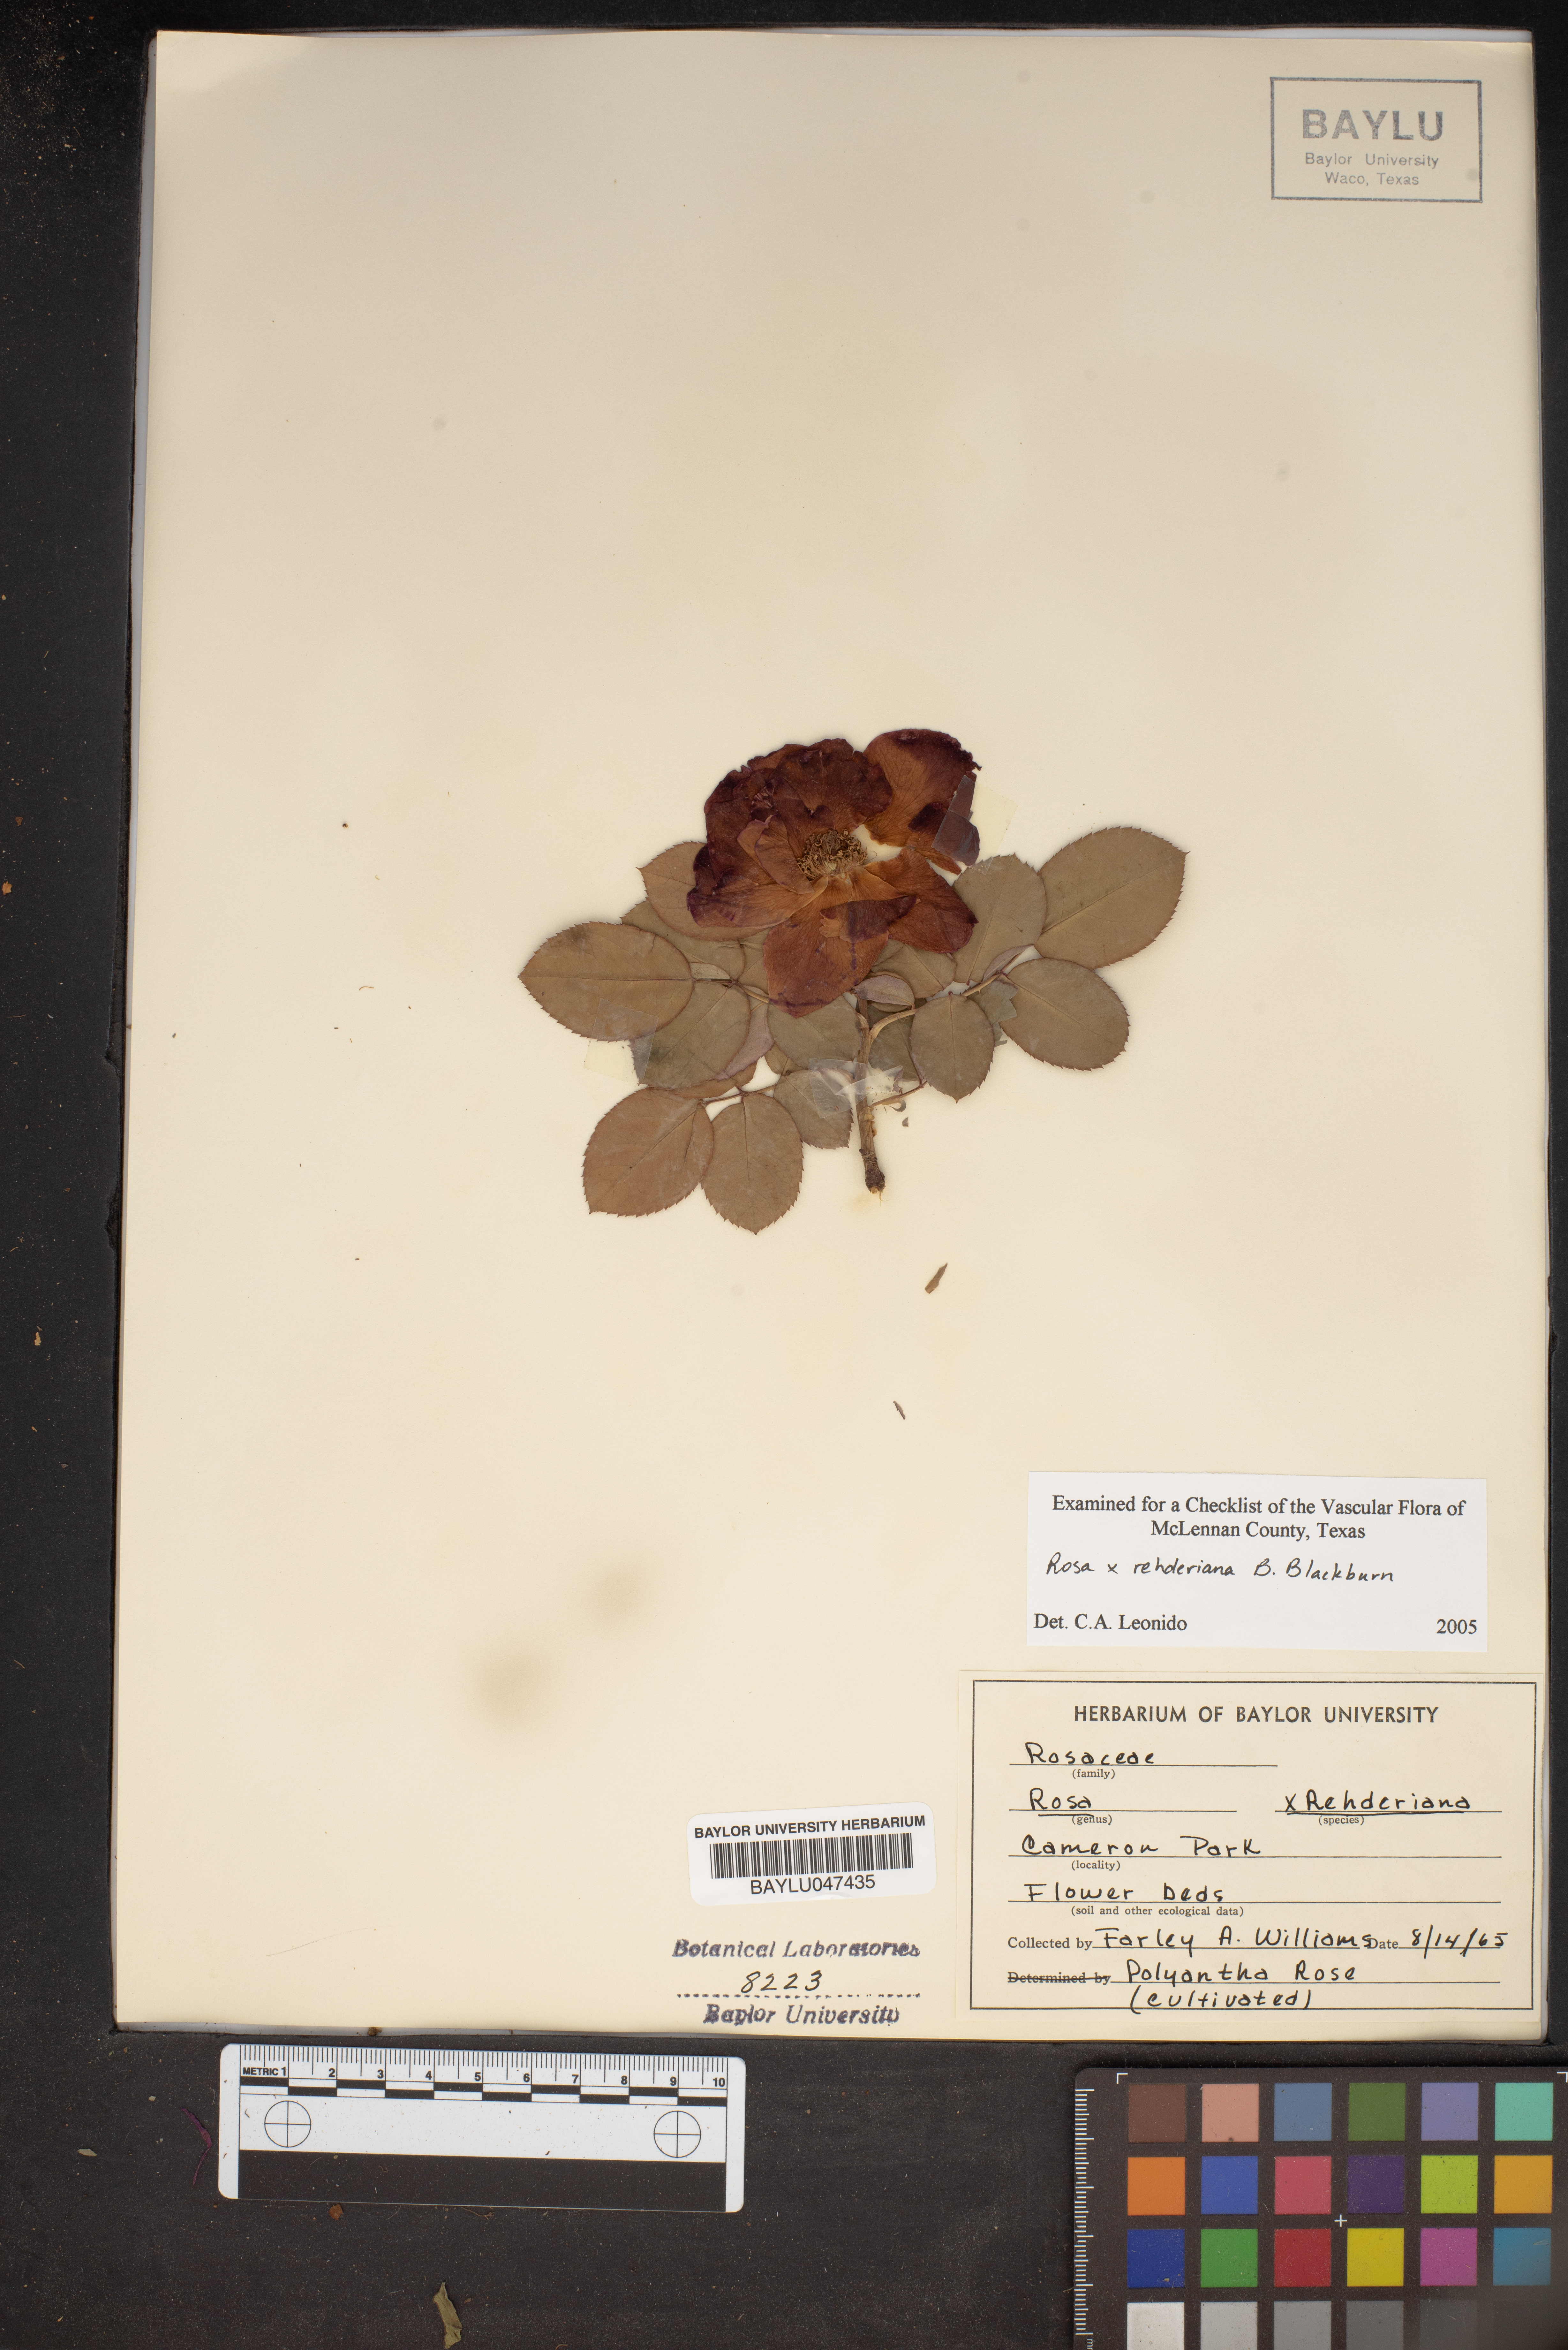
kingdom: Plantae
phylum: Tracheophyta
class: Magnoliopsida
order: Rosales
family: Rosaceae
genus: Rosa
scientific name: Rosa
